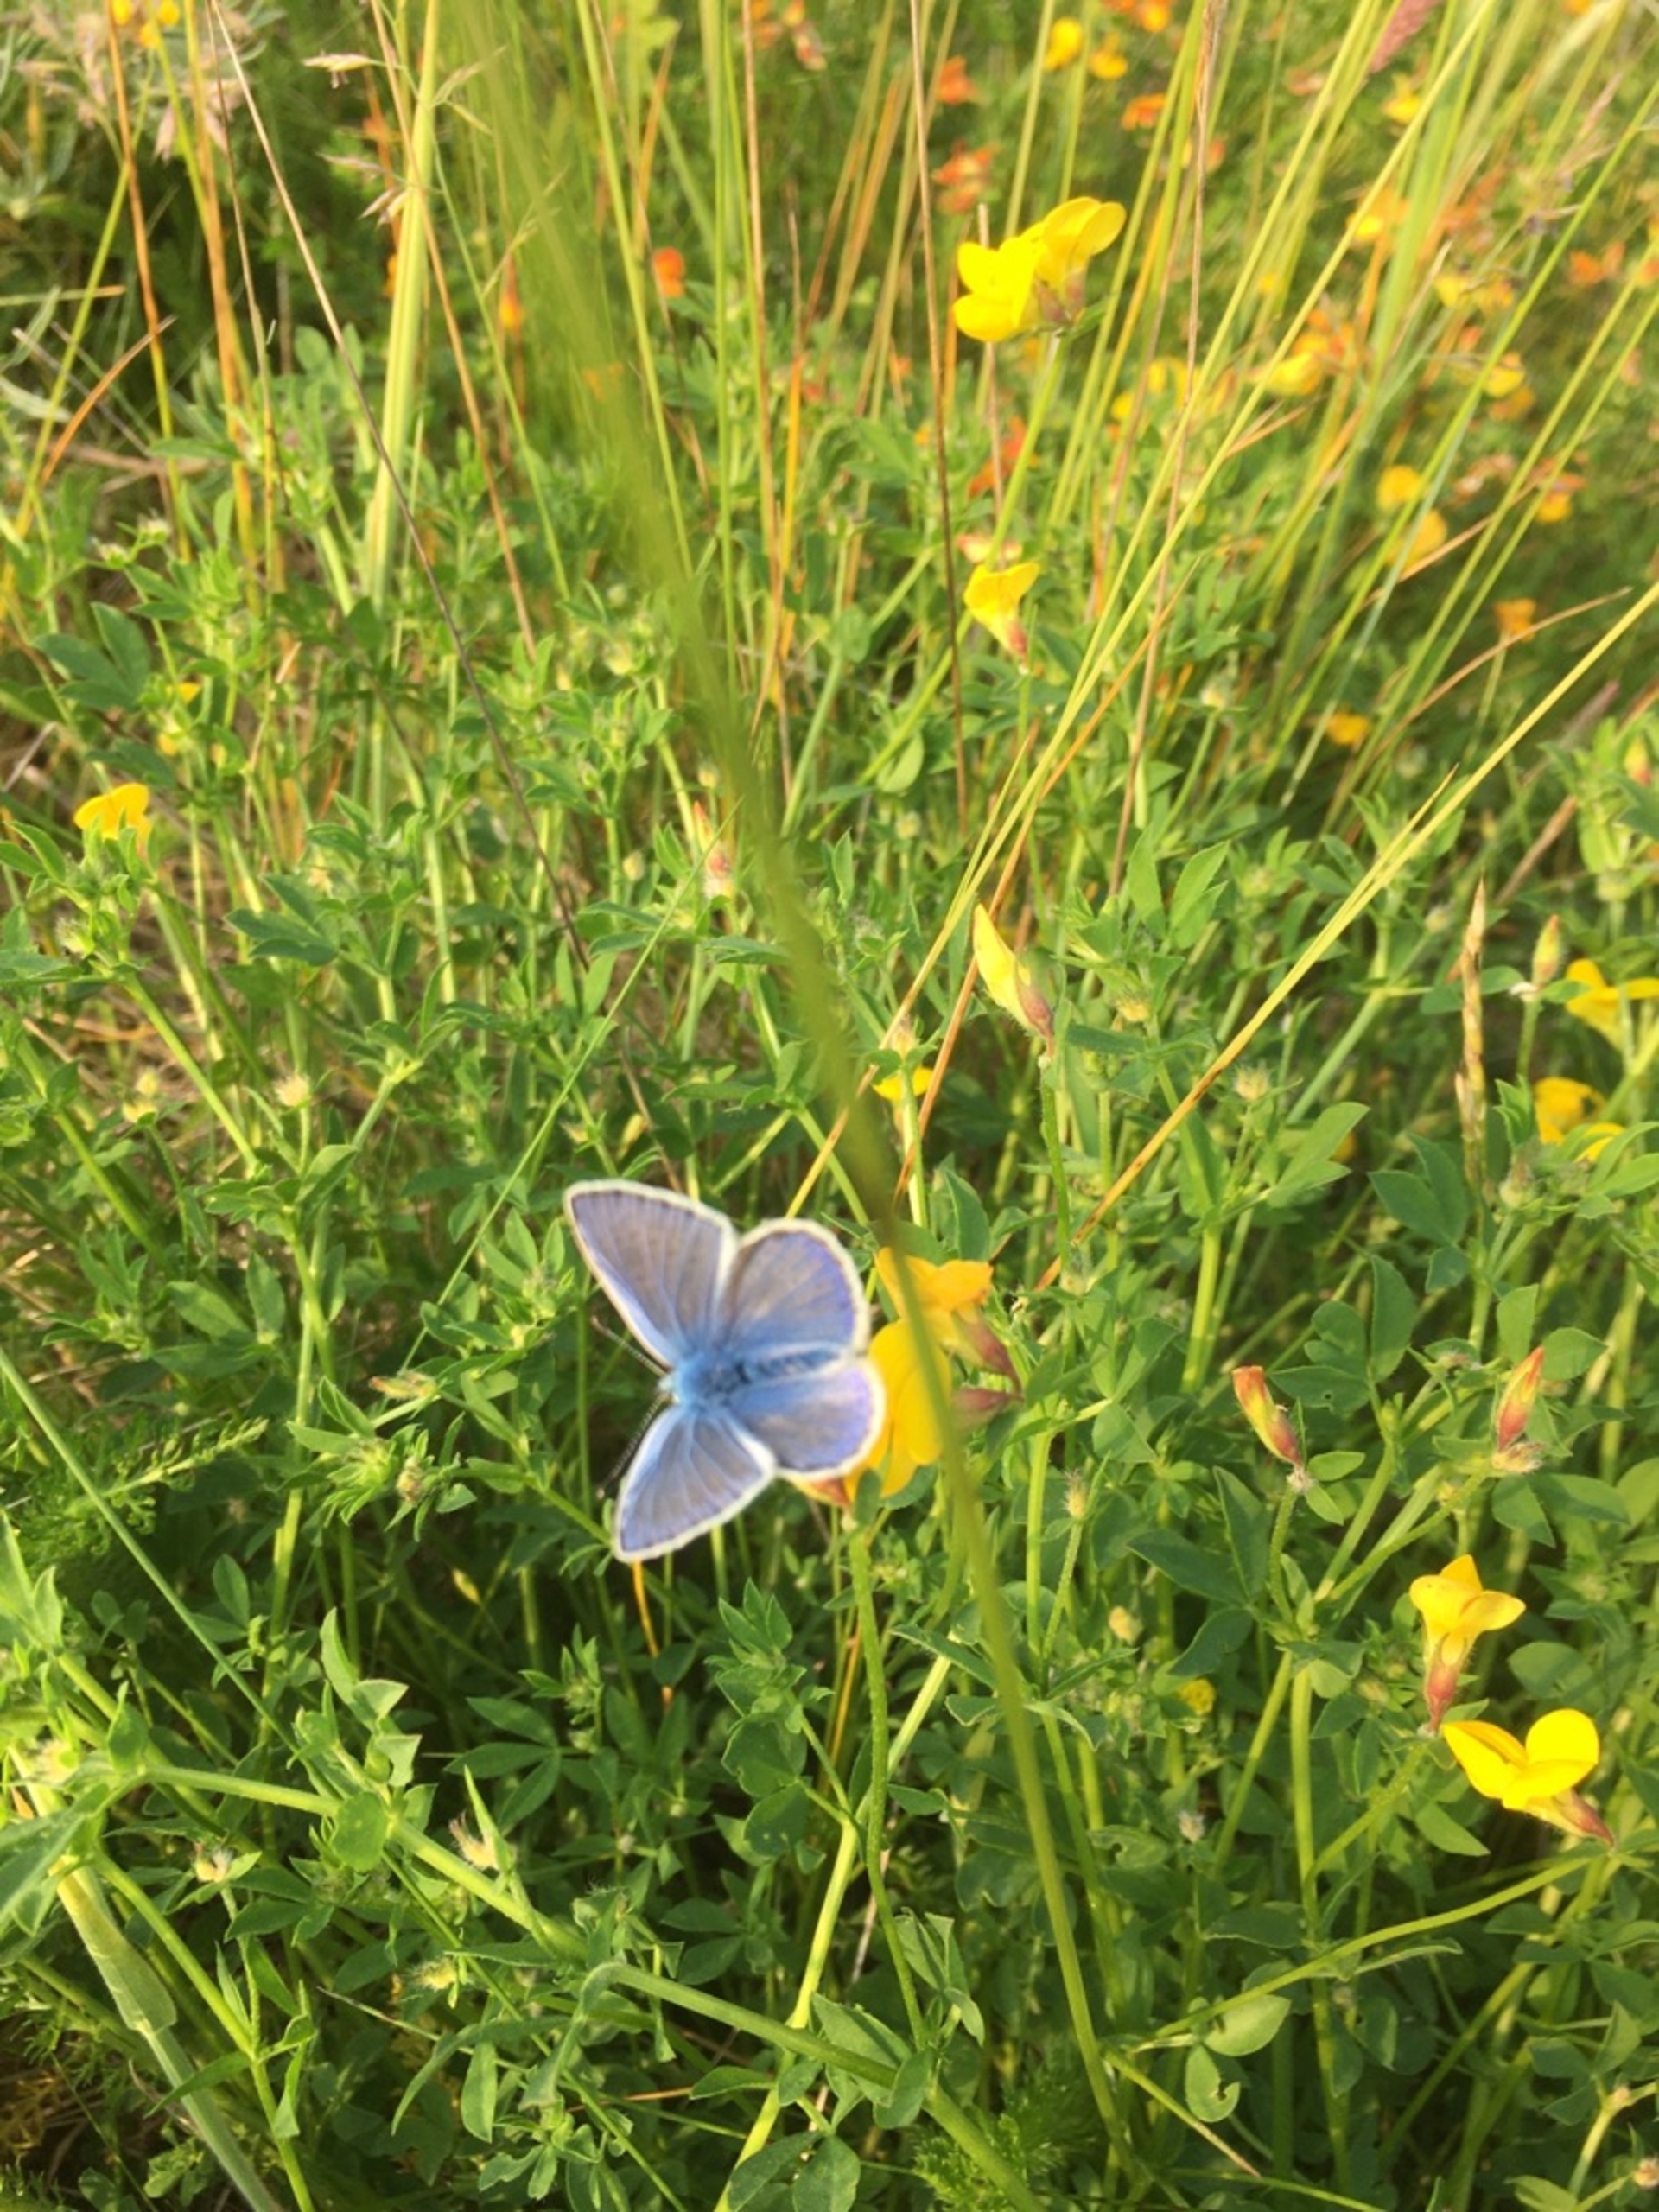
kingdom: Animalia
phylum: Arthropoda
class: Insecta
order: Lepidoptera
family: Lycaenidae
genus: Polyommatus
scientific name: Polyommatus icarus
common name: Almindelig blåfugl
